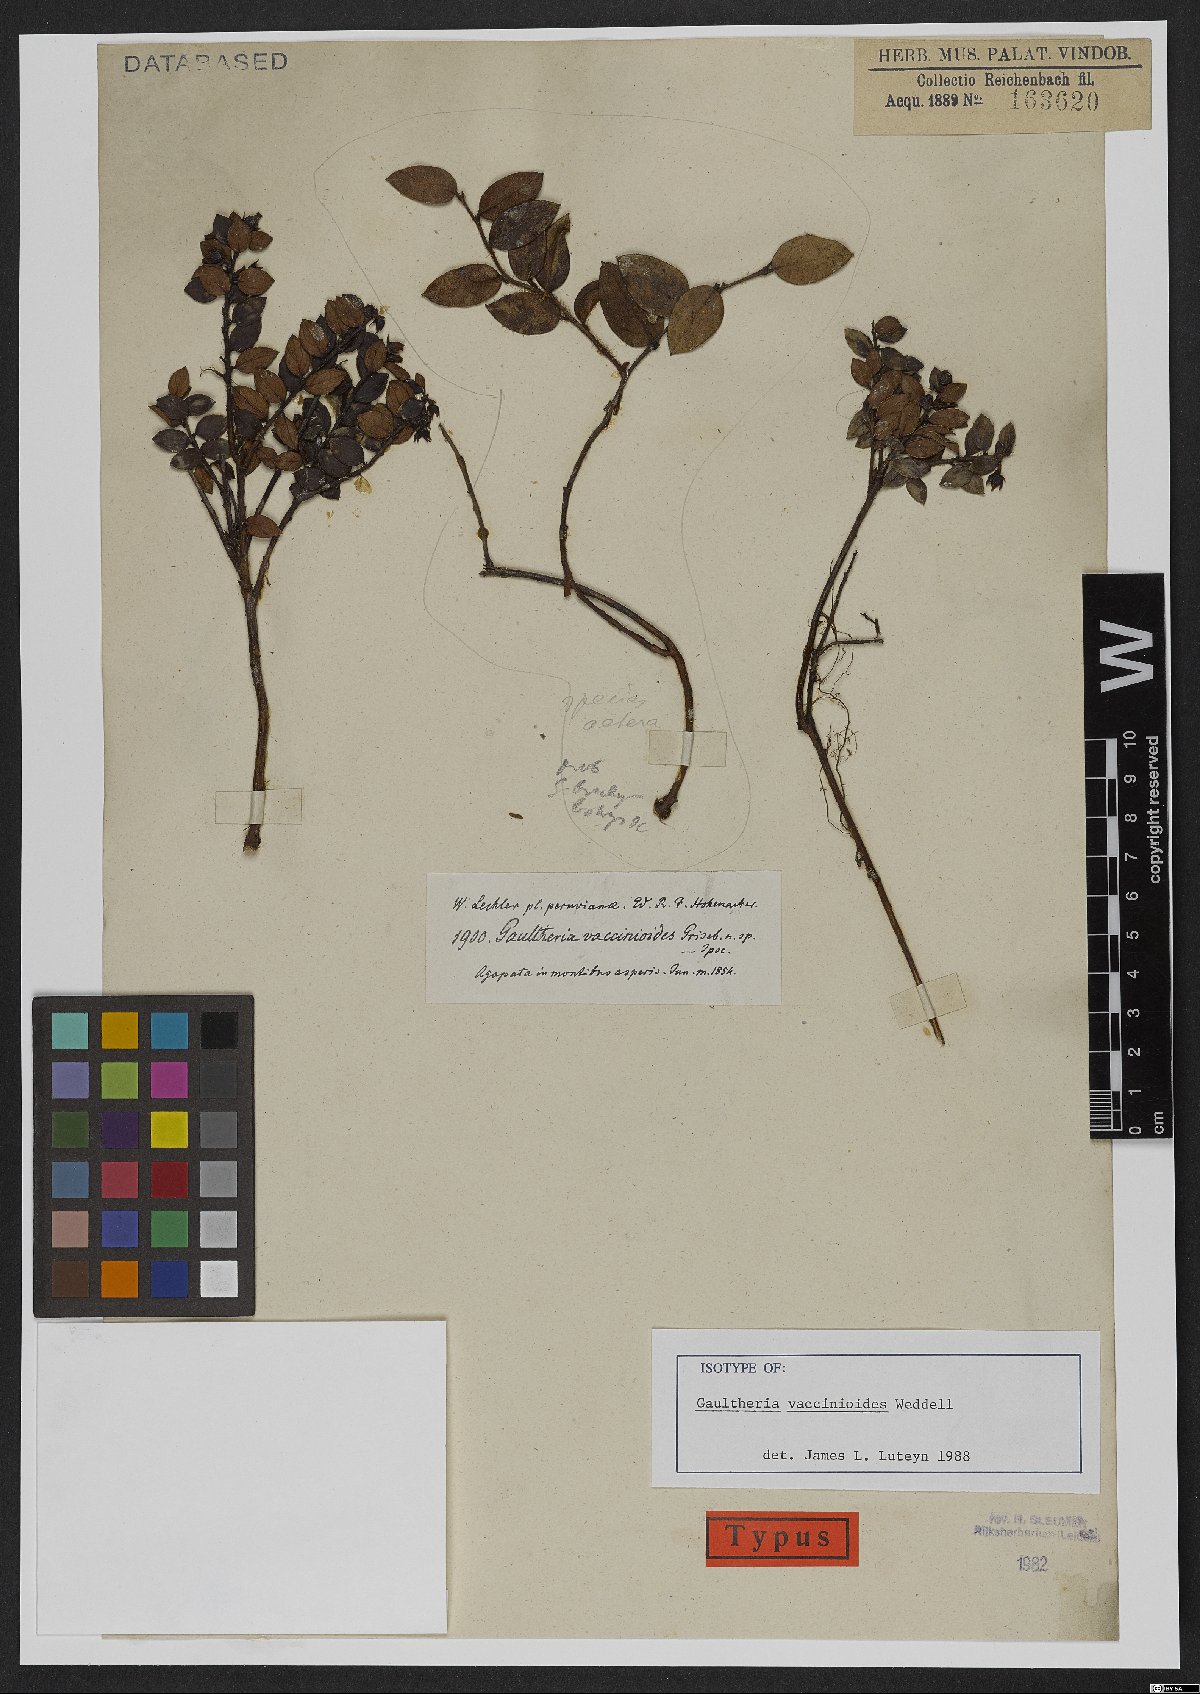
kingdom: Plantae
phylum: Tracheophyta
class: Magnoliopsida
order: Ericales
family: Ericaceae
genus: Gaultheria
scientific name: Gaultheria vaccinioides
